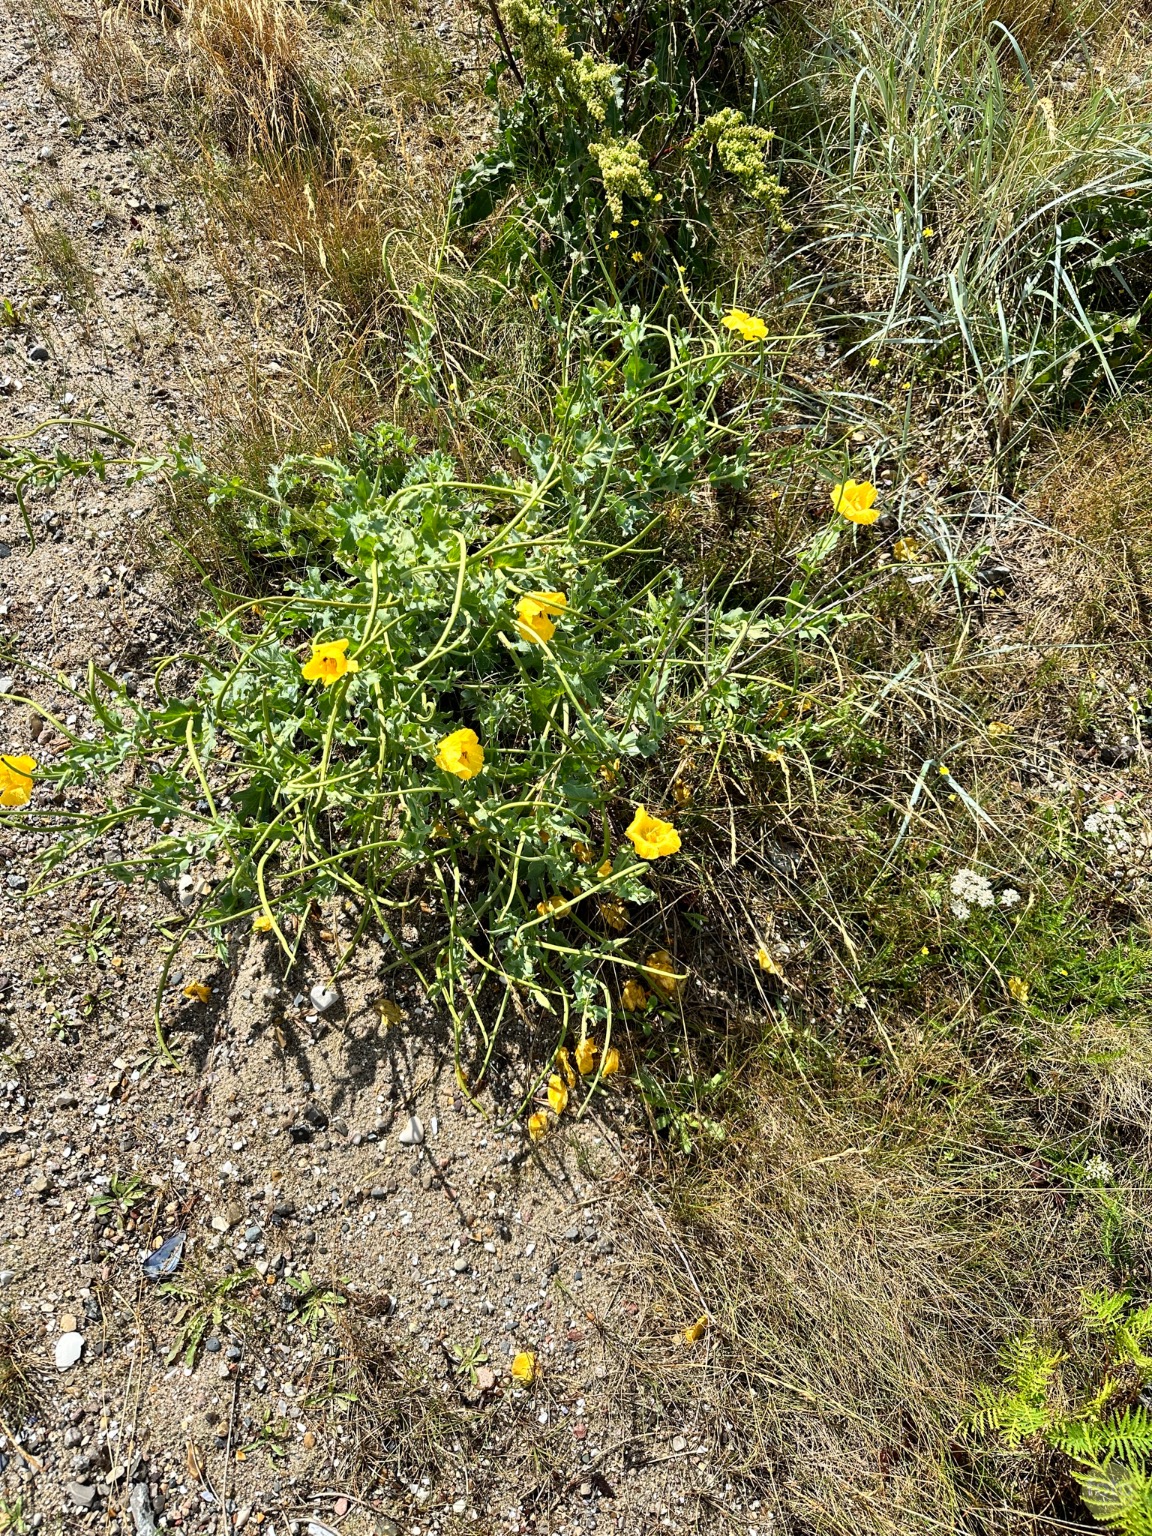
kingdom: Plantae
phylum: Tracheophyta
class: Magnoliopsida
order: Ranunculales
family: Papaveraceae
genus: Glaucium
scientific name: Glaucium flavum
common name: Hornskulpe
